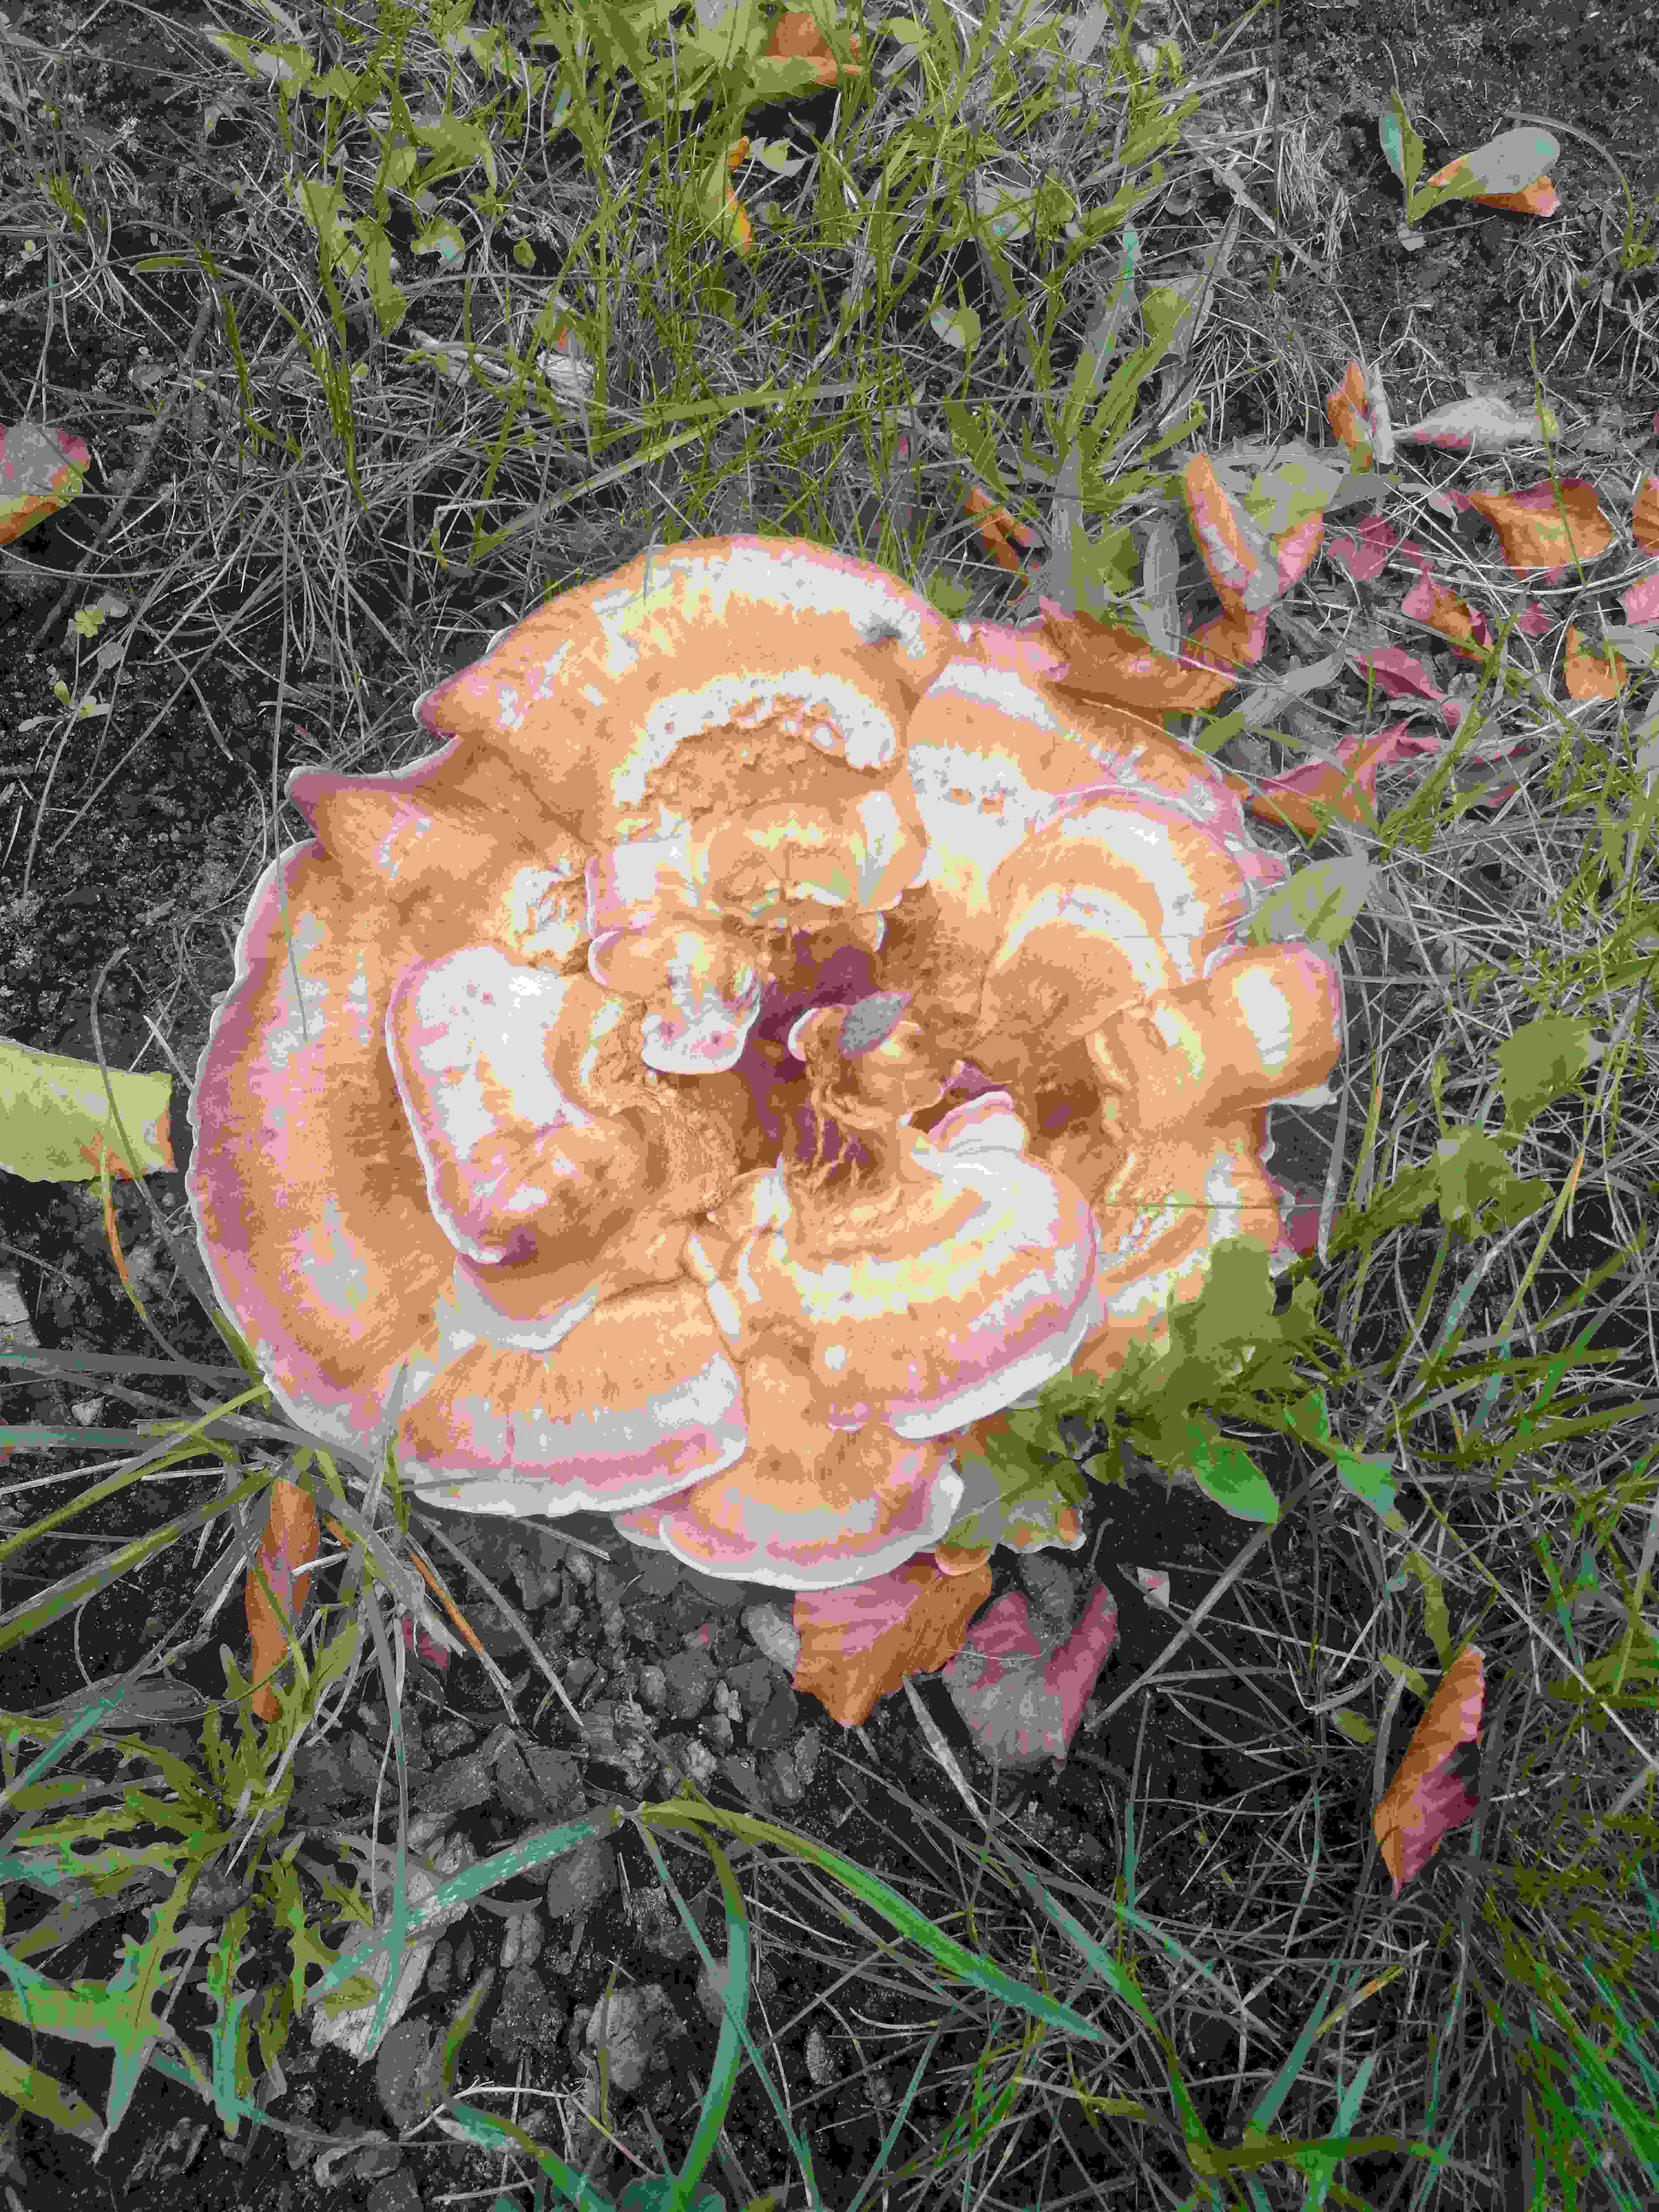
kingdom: Fungi
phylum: Basidiomycota
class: Agaricomycetes
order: Polyporales
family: Meripilaceae
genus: Meripilus
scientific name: Meripilus giganteus
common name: kæmpeporesvamp
